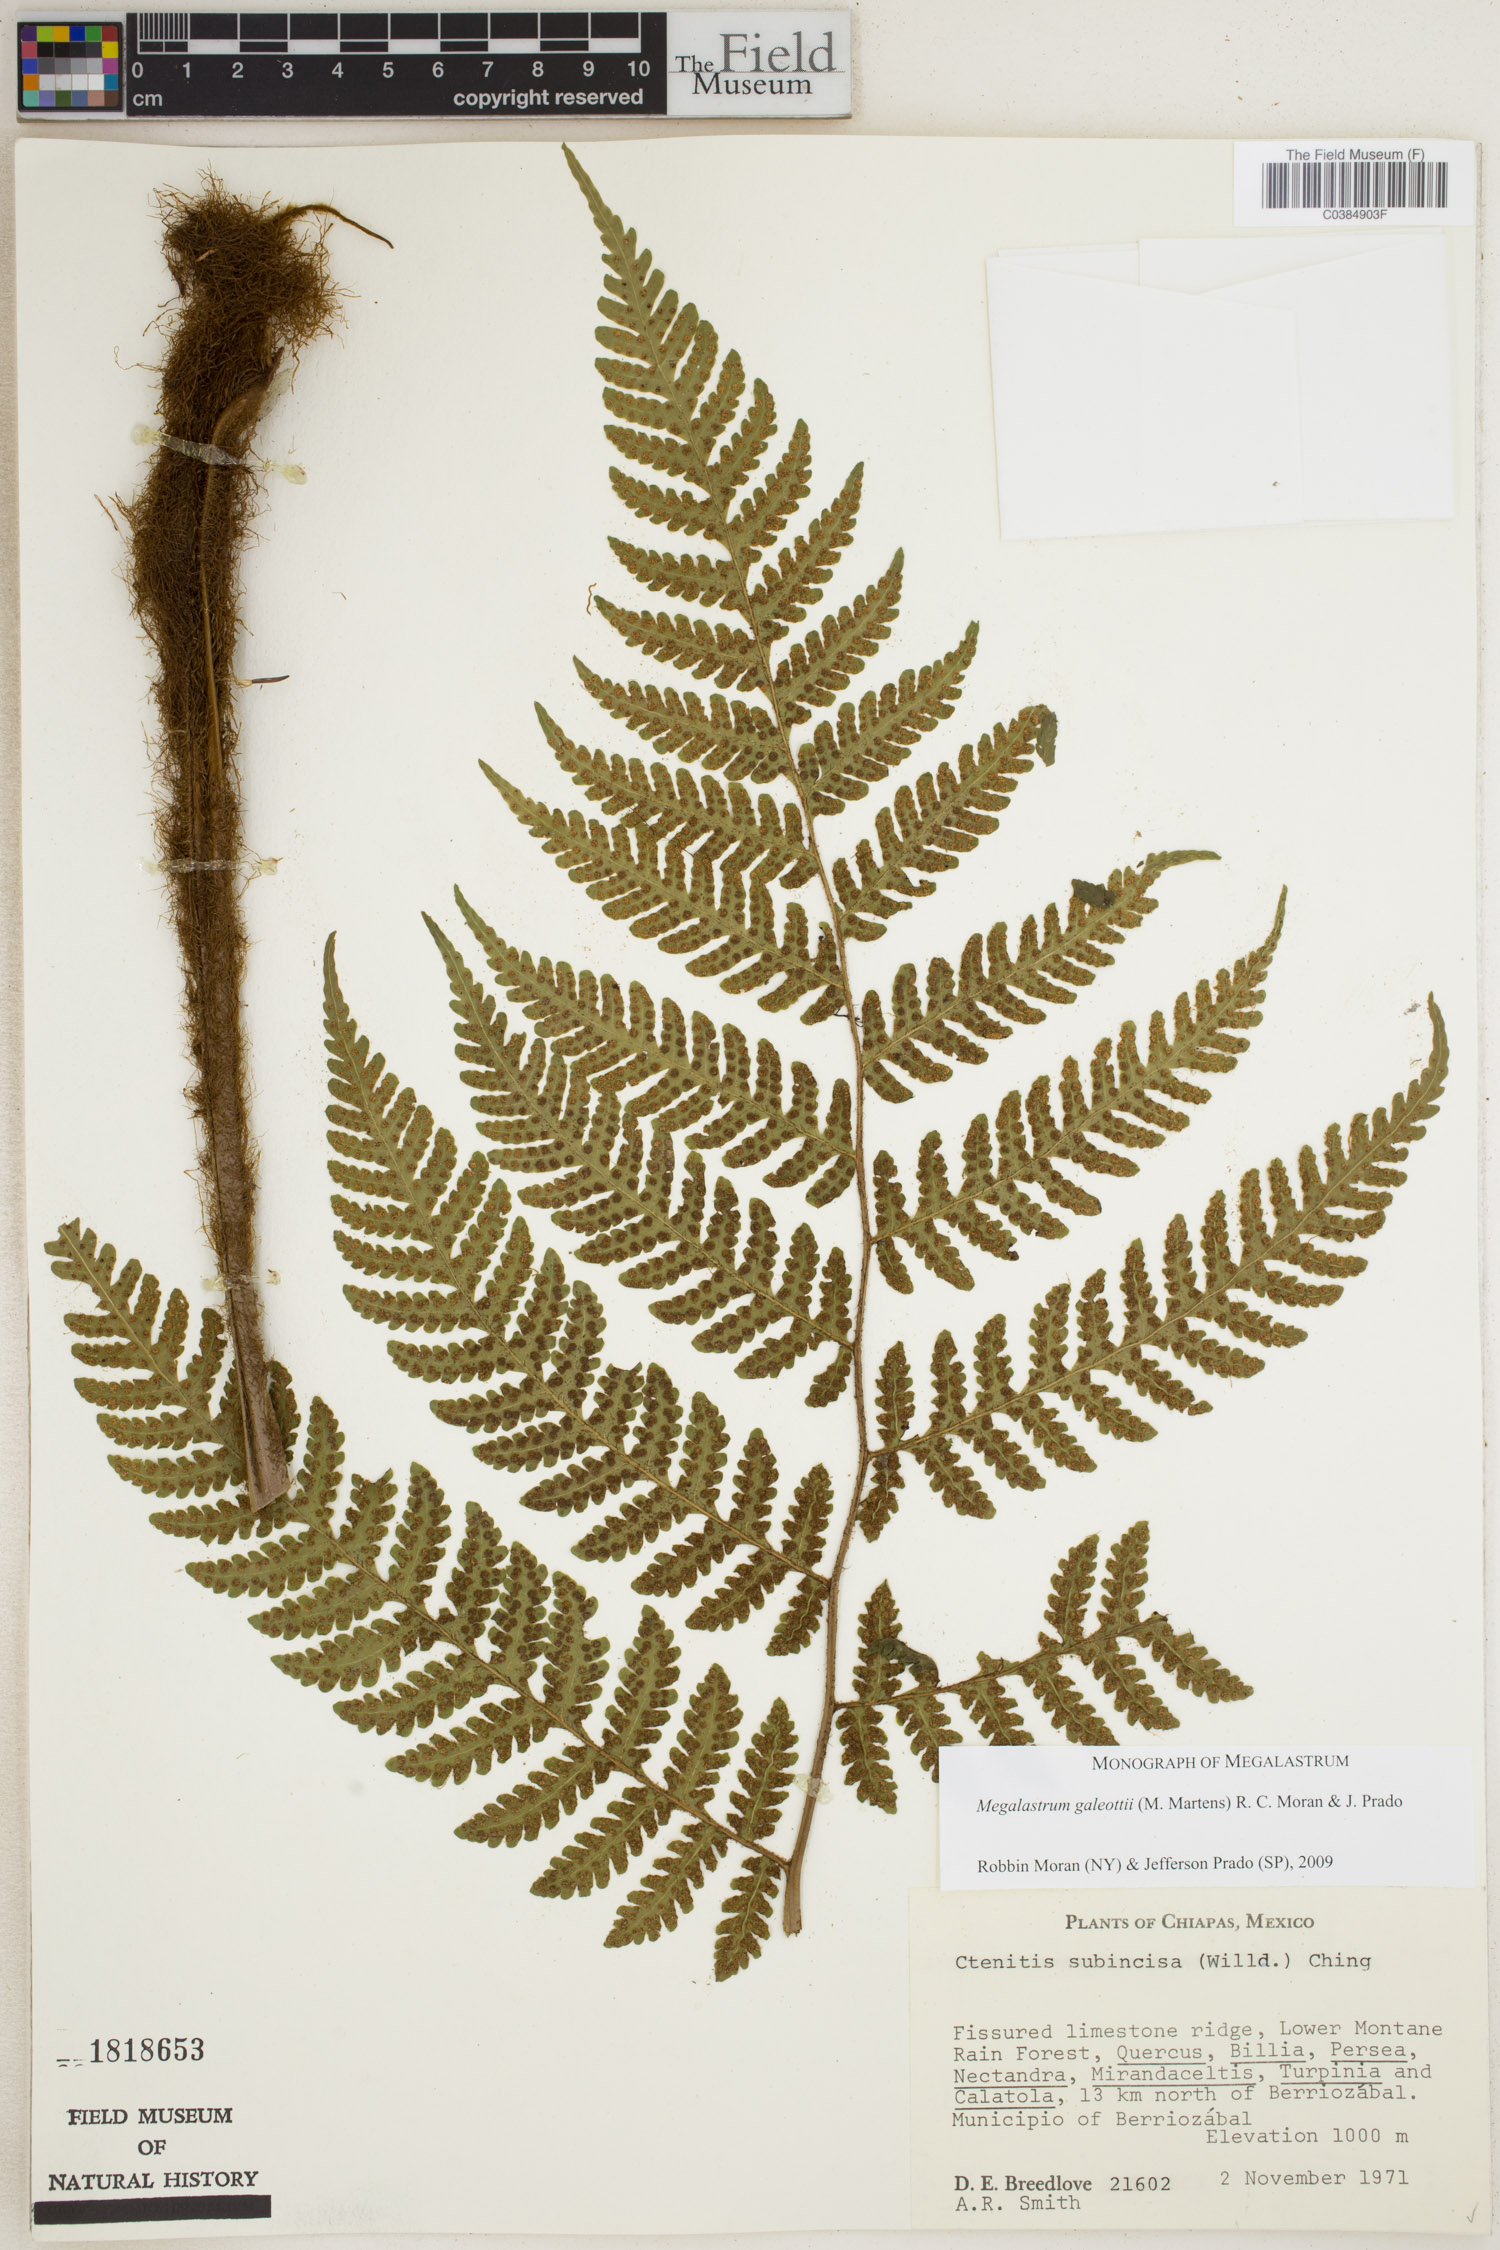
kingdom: Plantae
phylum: Tracheophyta
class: Polypodiopsida
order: Polypodiales
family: Dryopteridaceae
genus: Megalastrum
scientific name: Megalastrum galeottii
